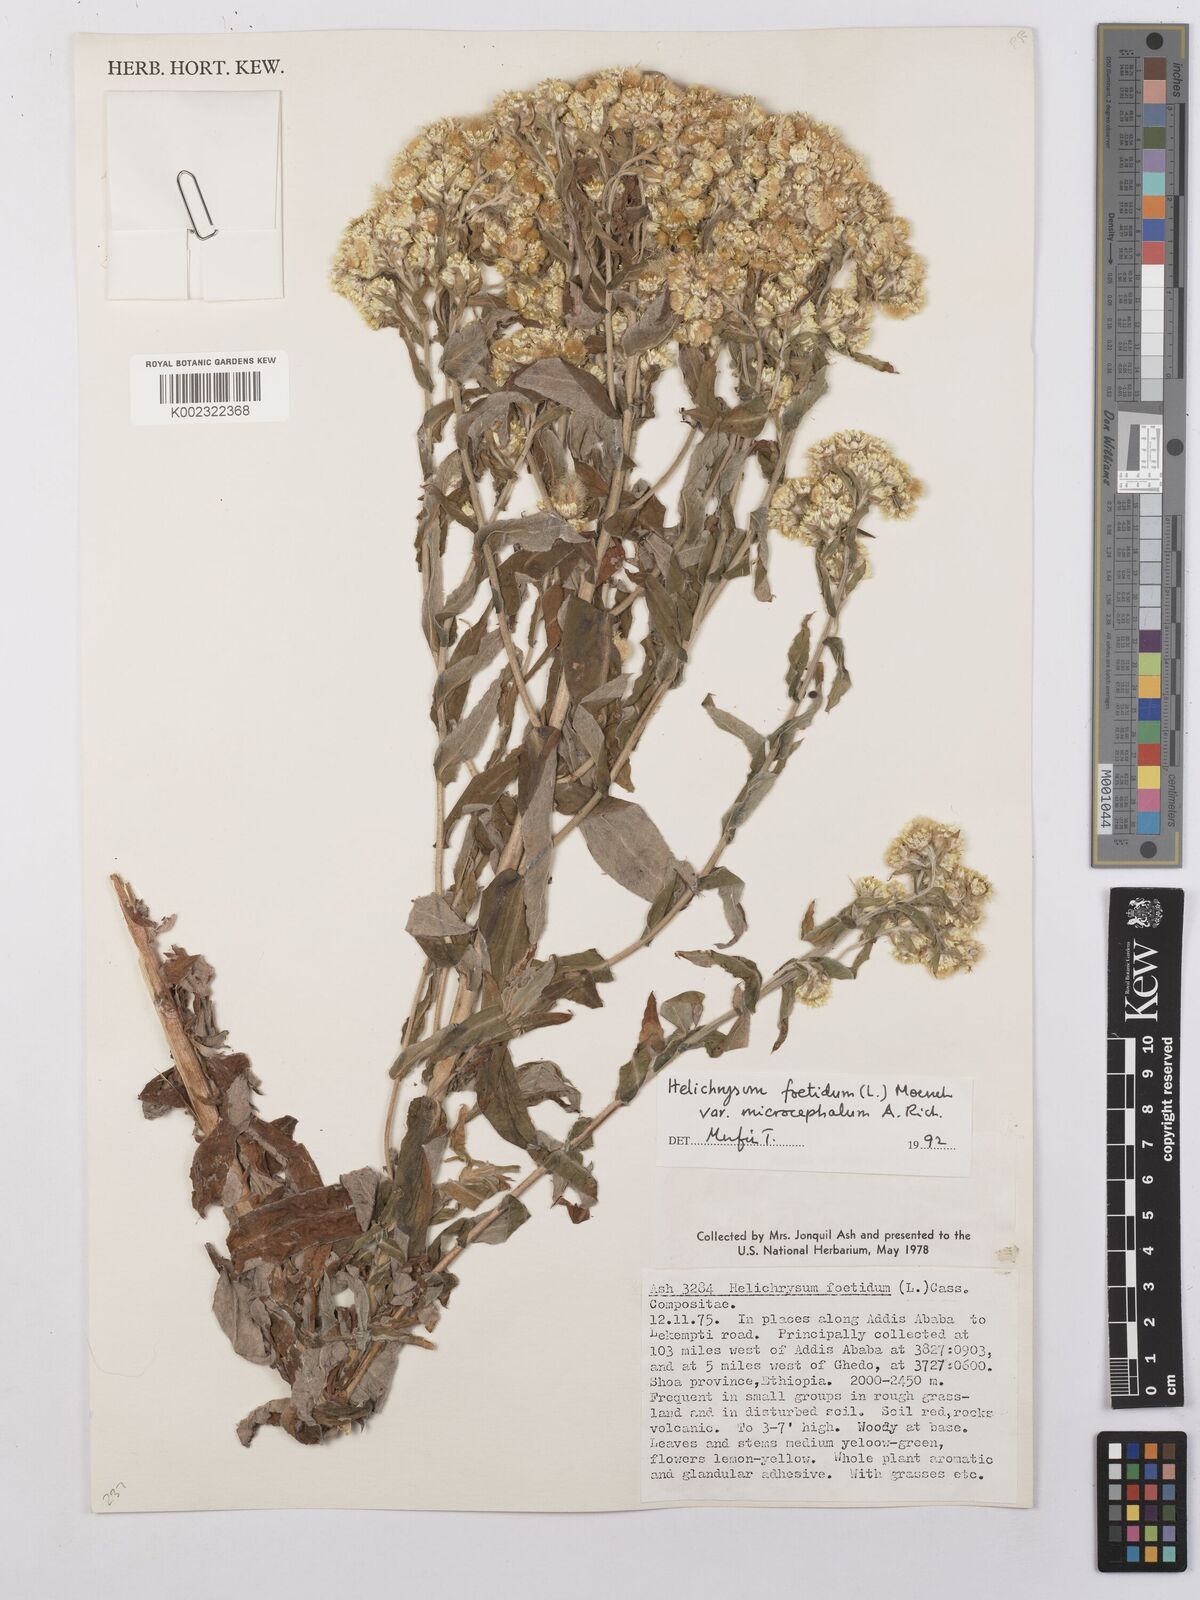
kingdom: Plantae
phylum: Tracheophyta
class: Magnoliopsida
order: Asterales
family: Asteraceae
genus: Helichrysum
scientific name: Helichrysum foetidum
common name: Stinking everlasting
